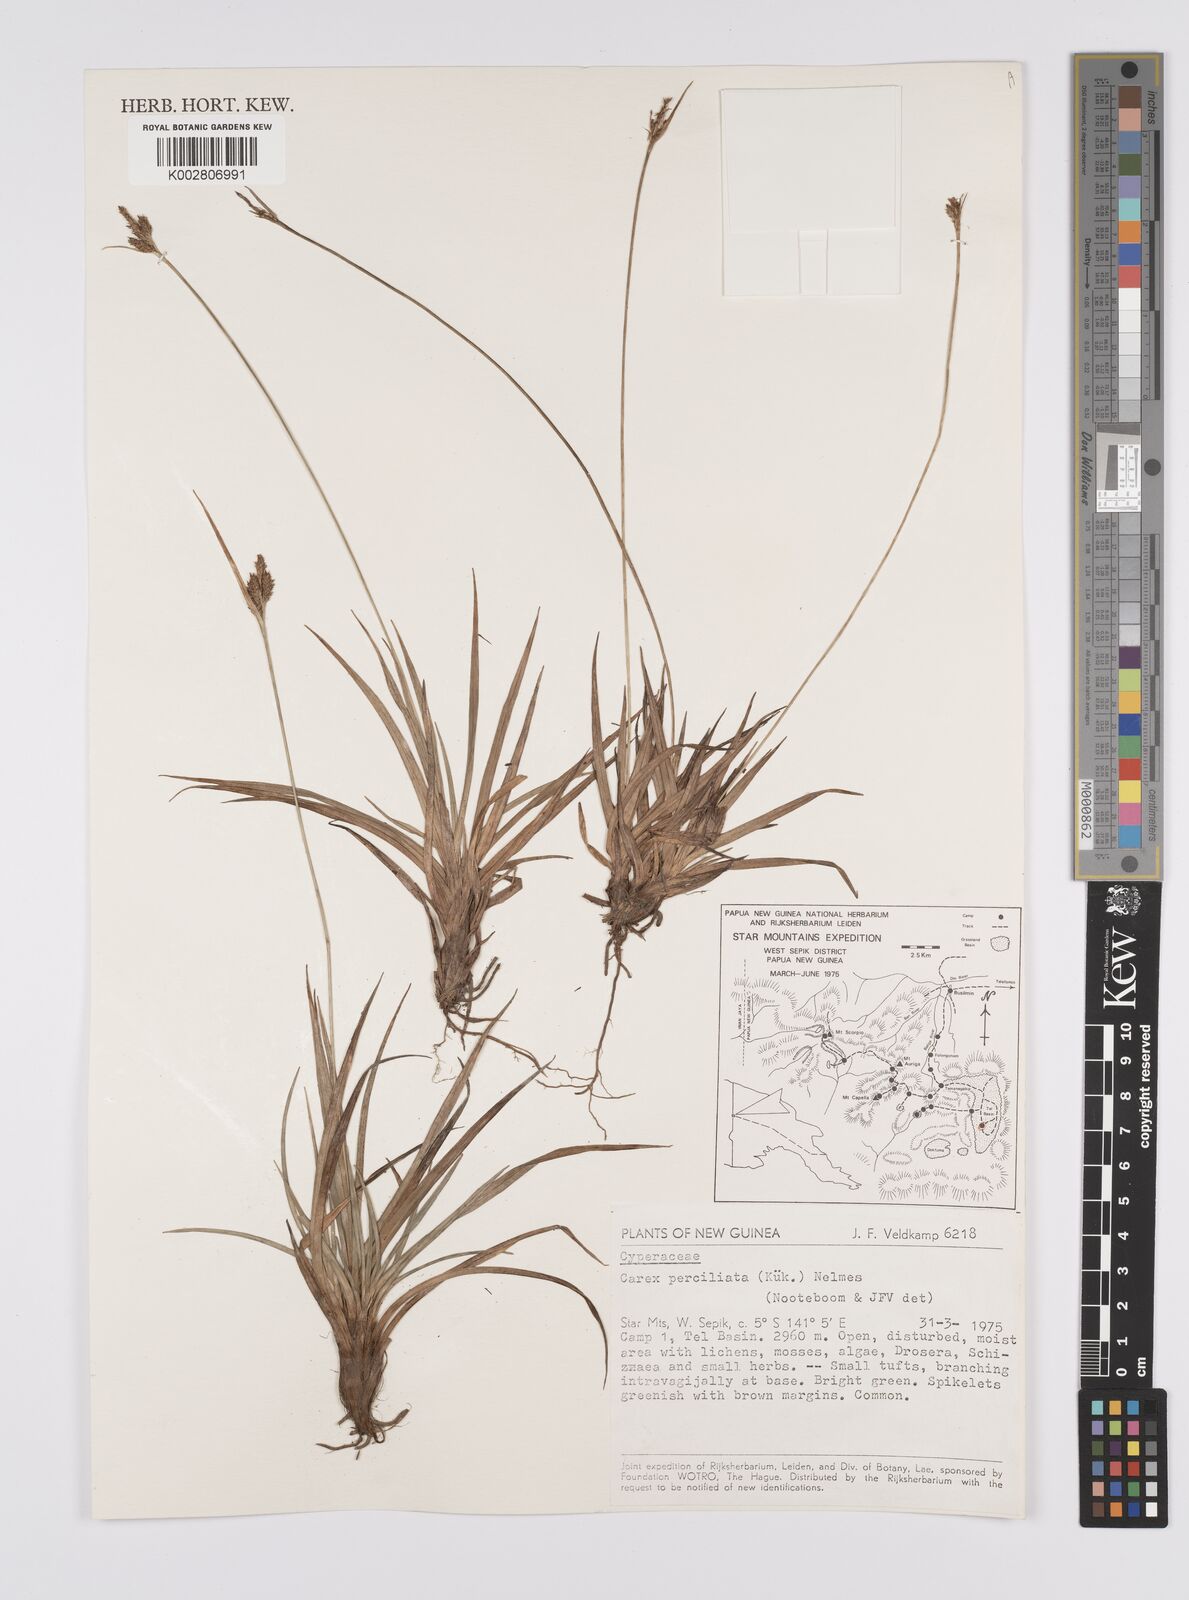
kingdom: Plantae
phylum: Tracheophyta
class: Liliopsida
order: Poales
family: Cyperaceae
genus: Carex
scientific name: Carex breviculmis
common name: Asian shortstem sedge
